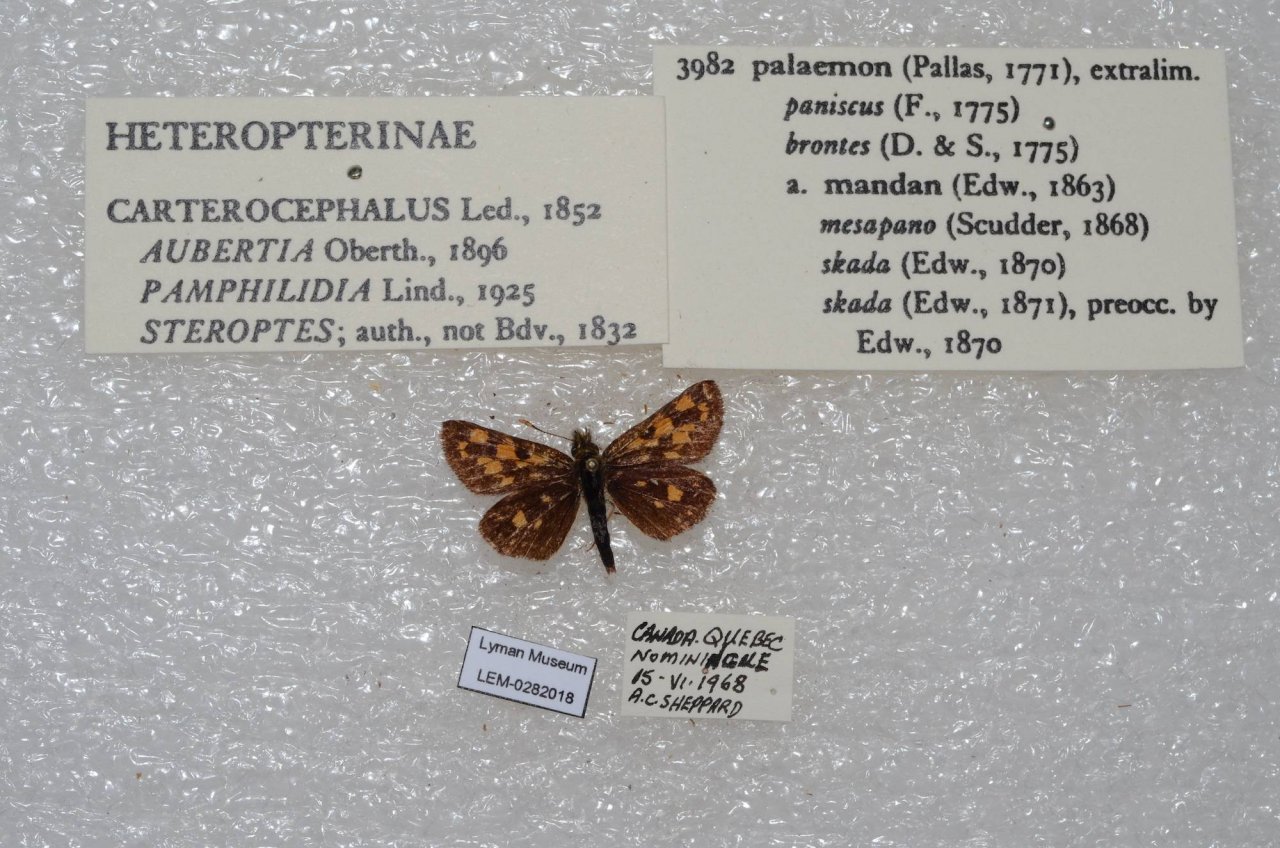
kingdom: Animalia
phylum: Arthropoda
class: Insecta
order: Lepidoptera
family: Hesperiidae
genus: Carterocephalus
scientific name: Carterocephalus palaemon
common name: Chequered Skipper
